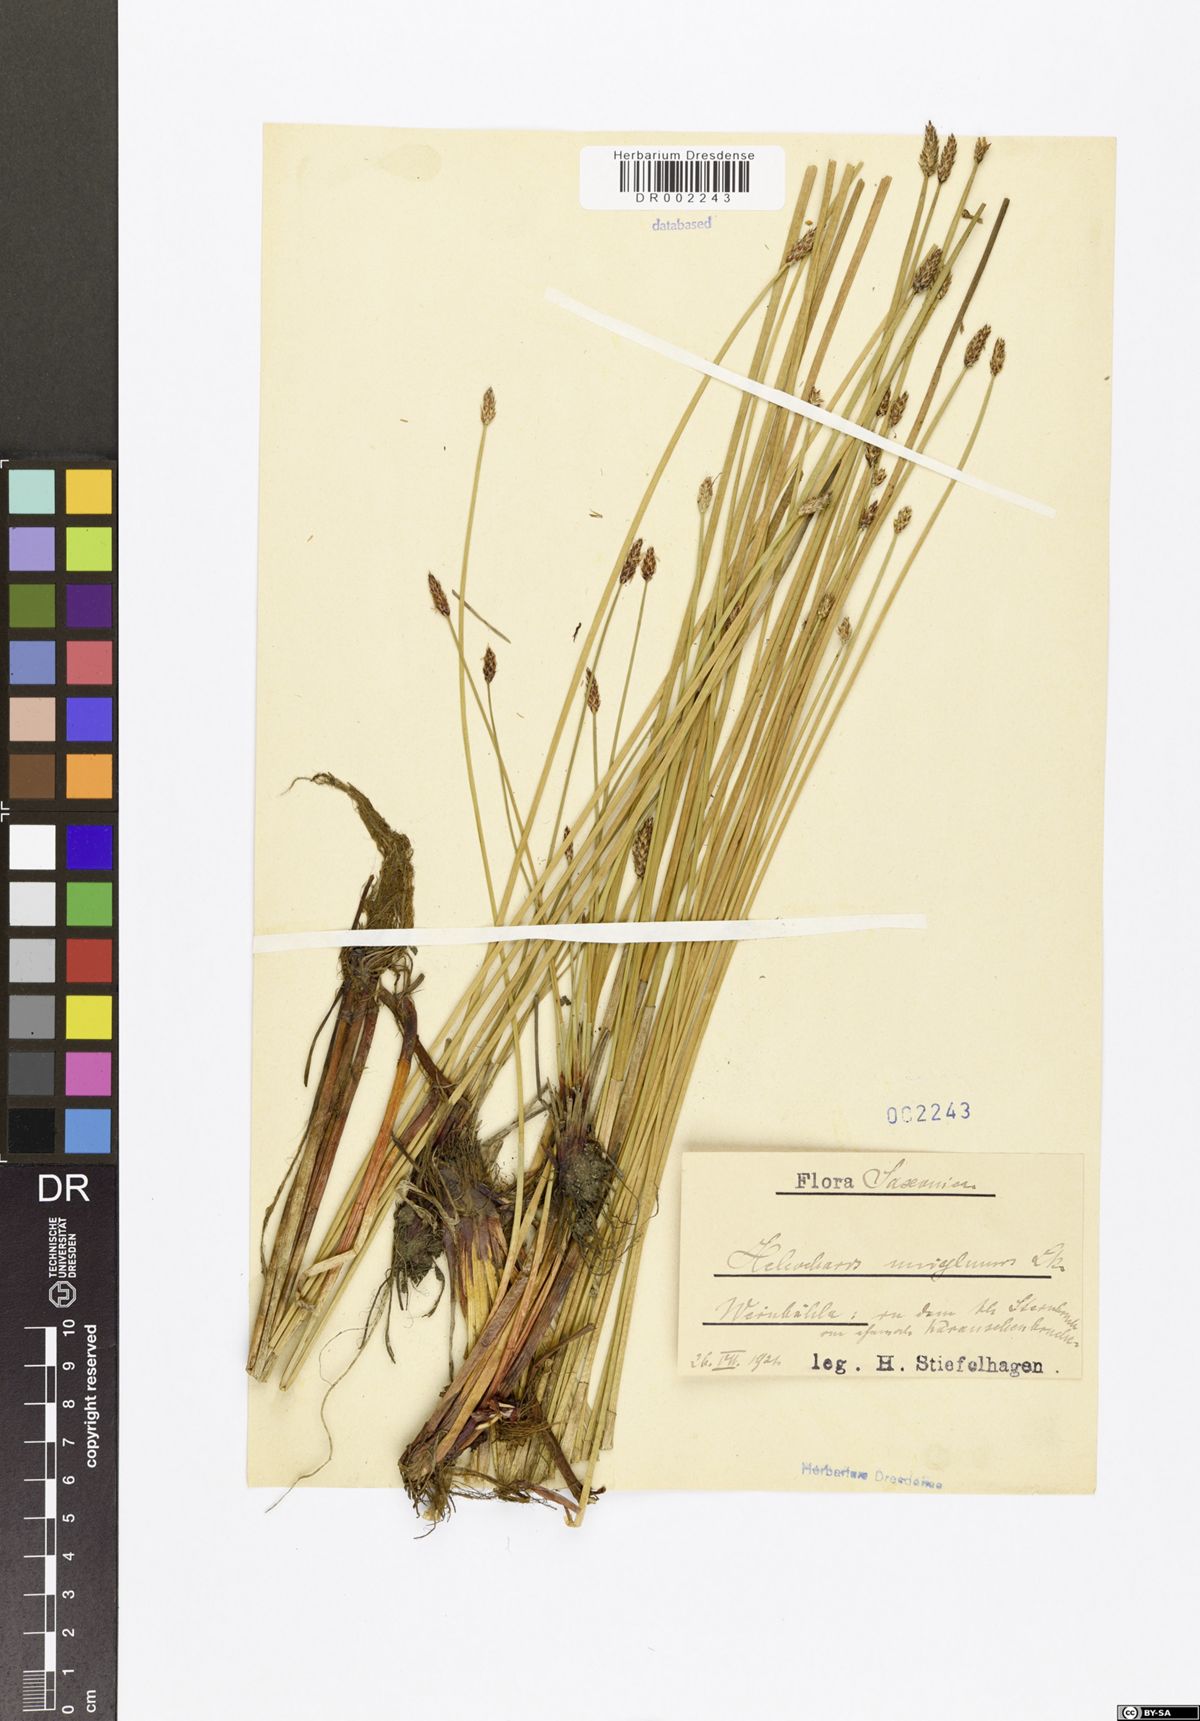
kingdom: Plantae
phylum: Tracheophyta
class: Liliopsida
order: Poales
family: Cyperaceae
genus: Eleocharis
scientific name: Eleocharis uniglumis
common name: Slender spike-rush
